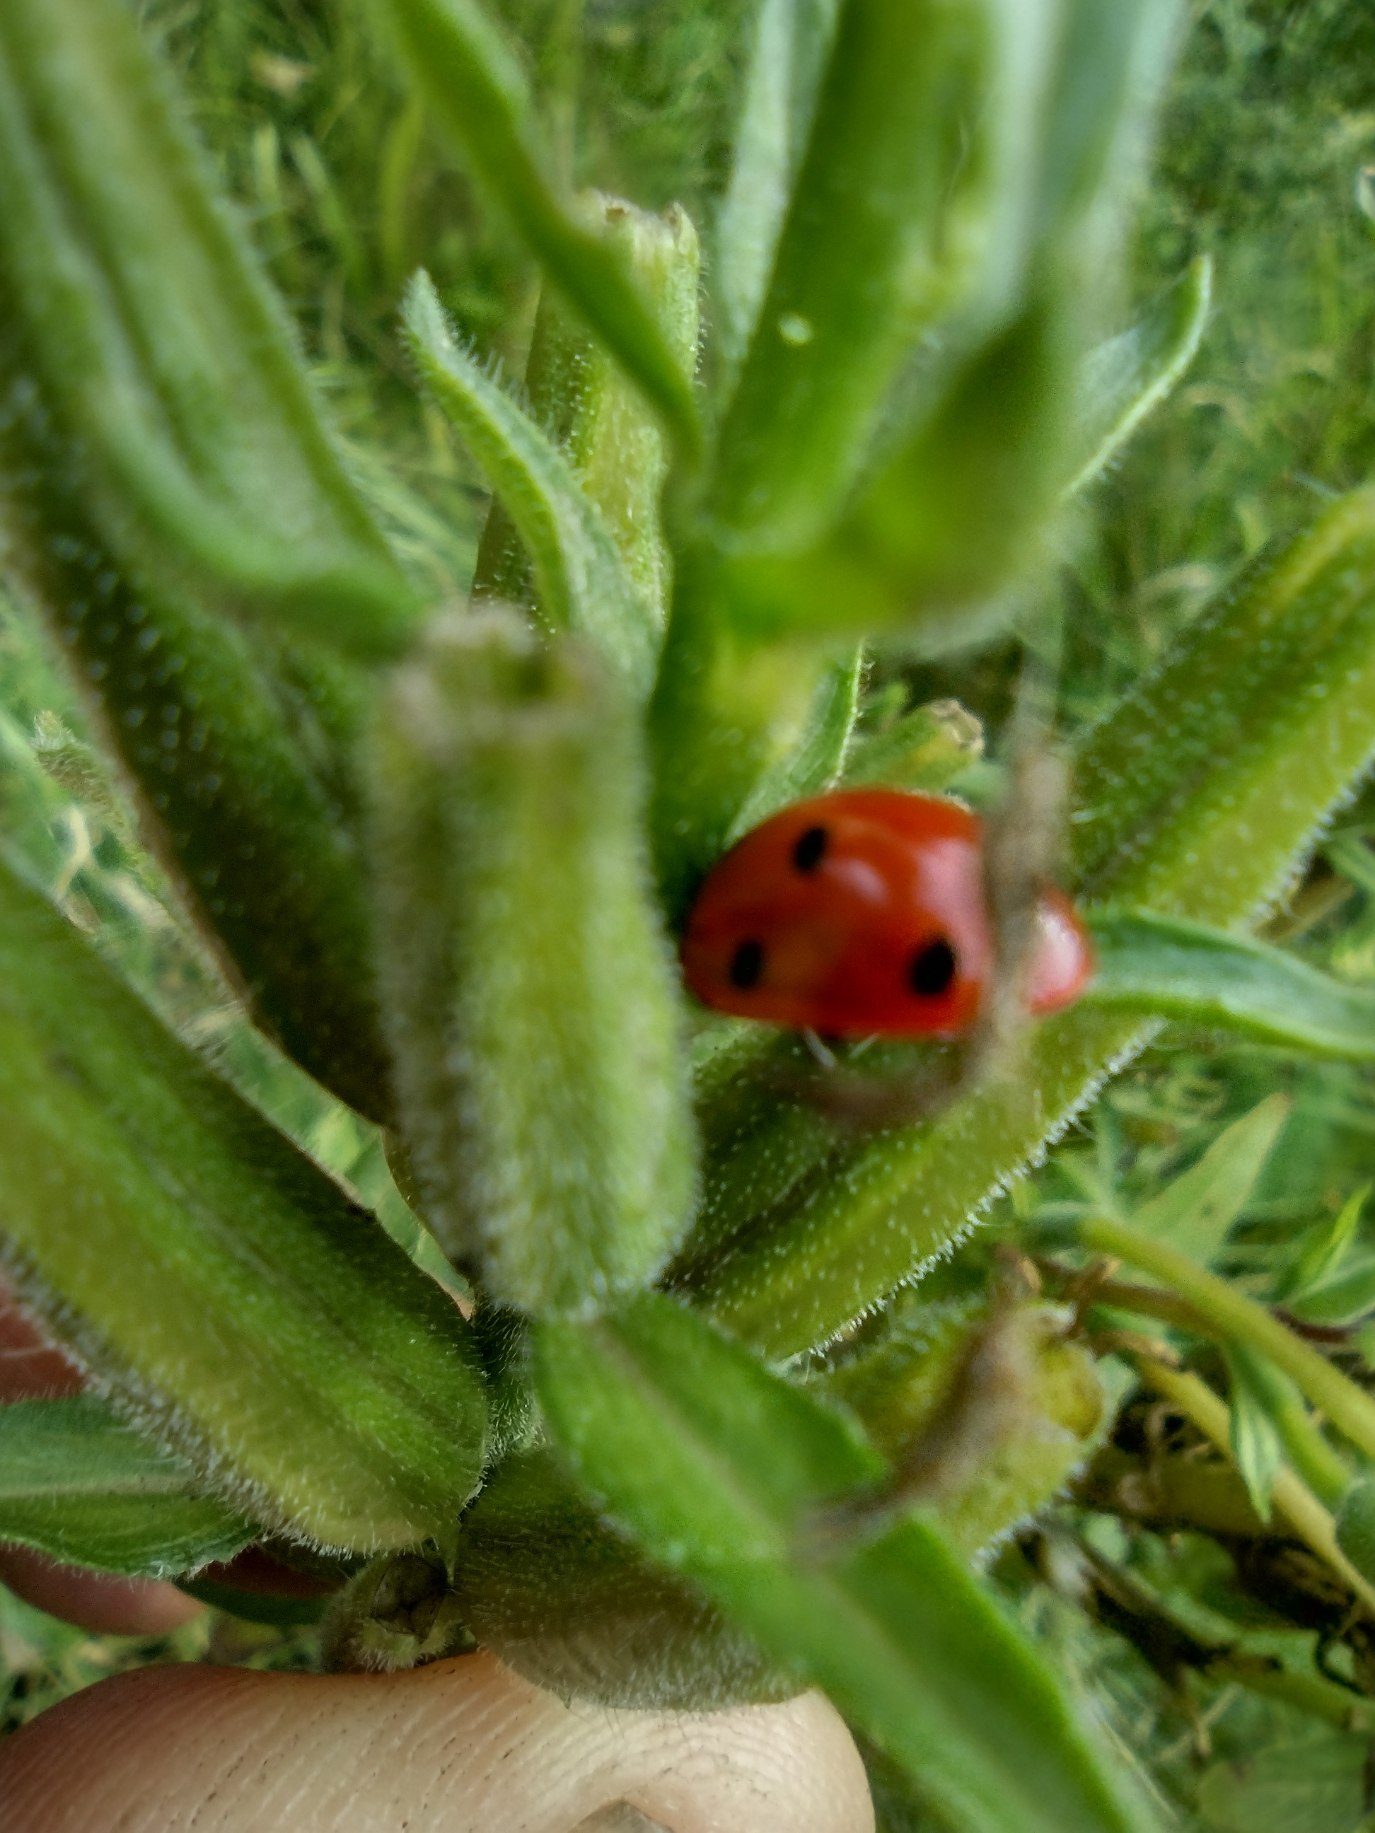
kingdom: Animalia
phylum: Arthropoda
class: Insecta
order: Coleoptera
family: Coccinellidae
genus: Coccinella
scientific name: Coccinella septempunctata
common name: Syvplettet mariehøne
